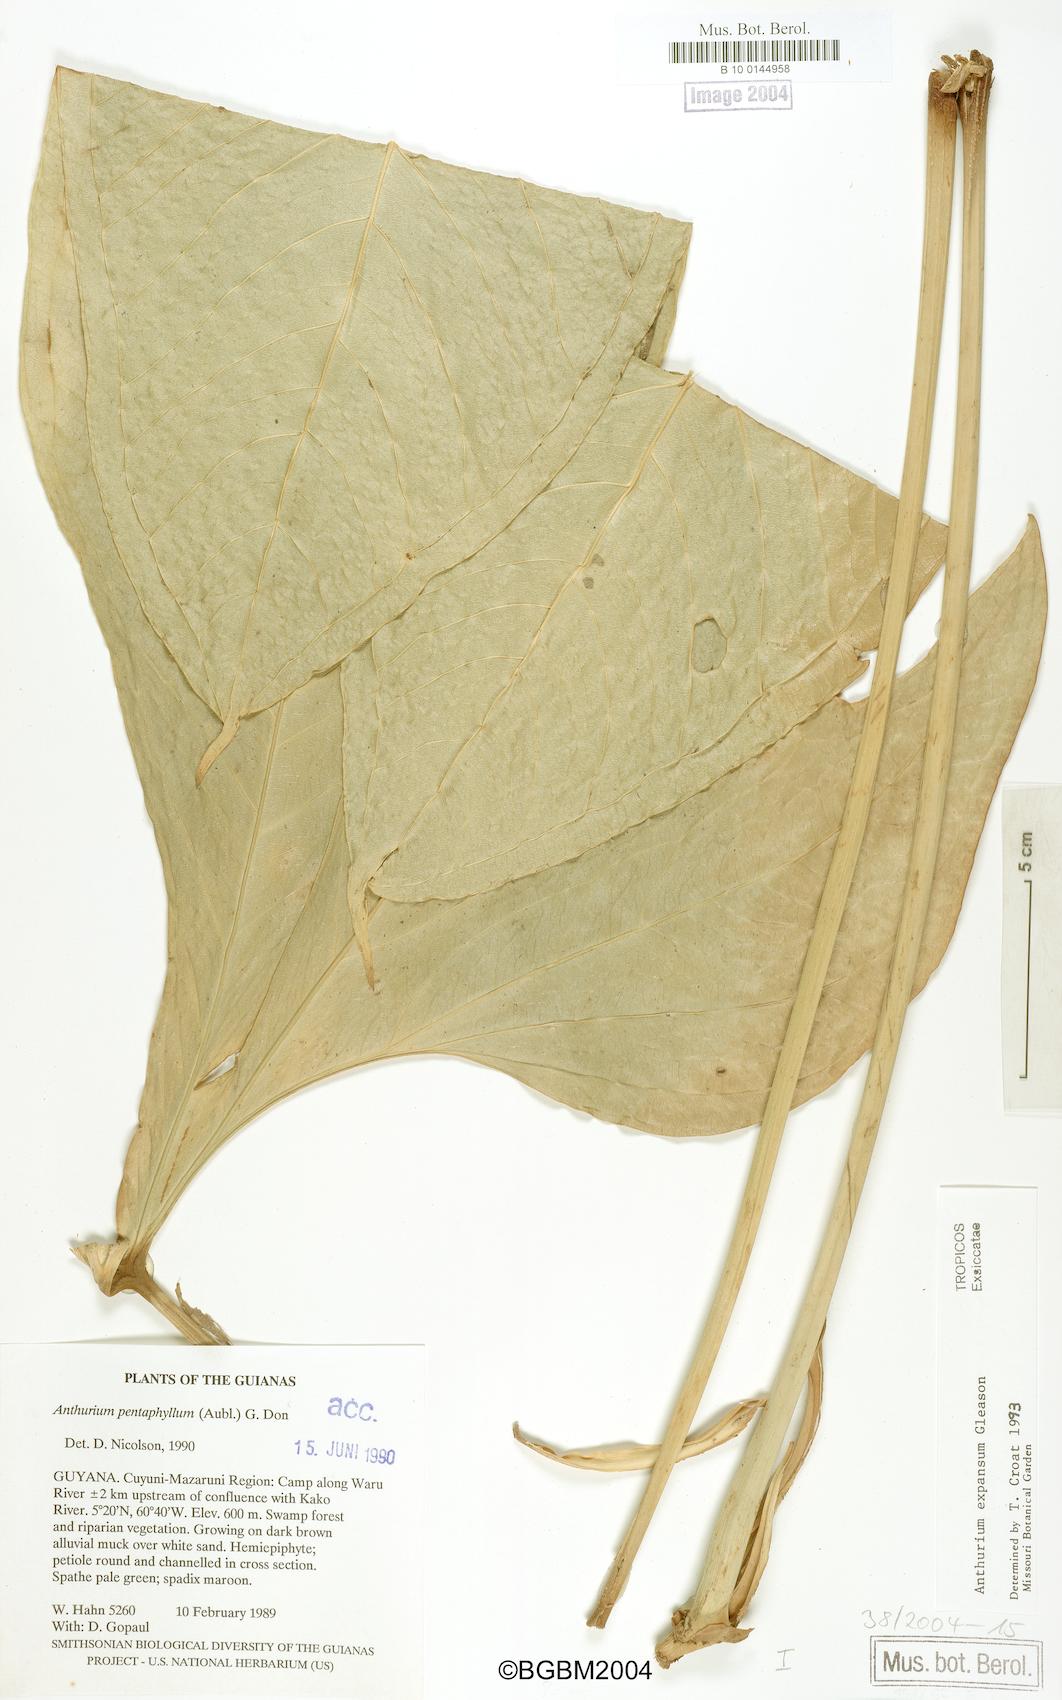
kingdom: Plantae
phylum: Tracheophyta
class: Liliopsida
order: Alismatales
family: Araceae
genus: Anthurium
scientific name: Anthurium pentaphyllum
